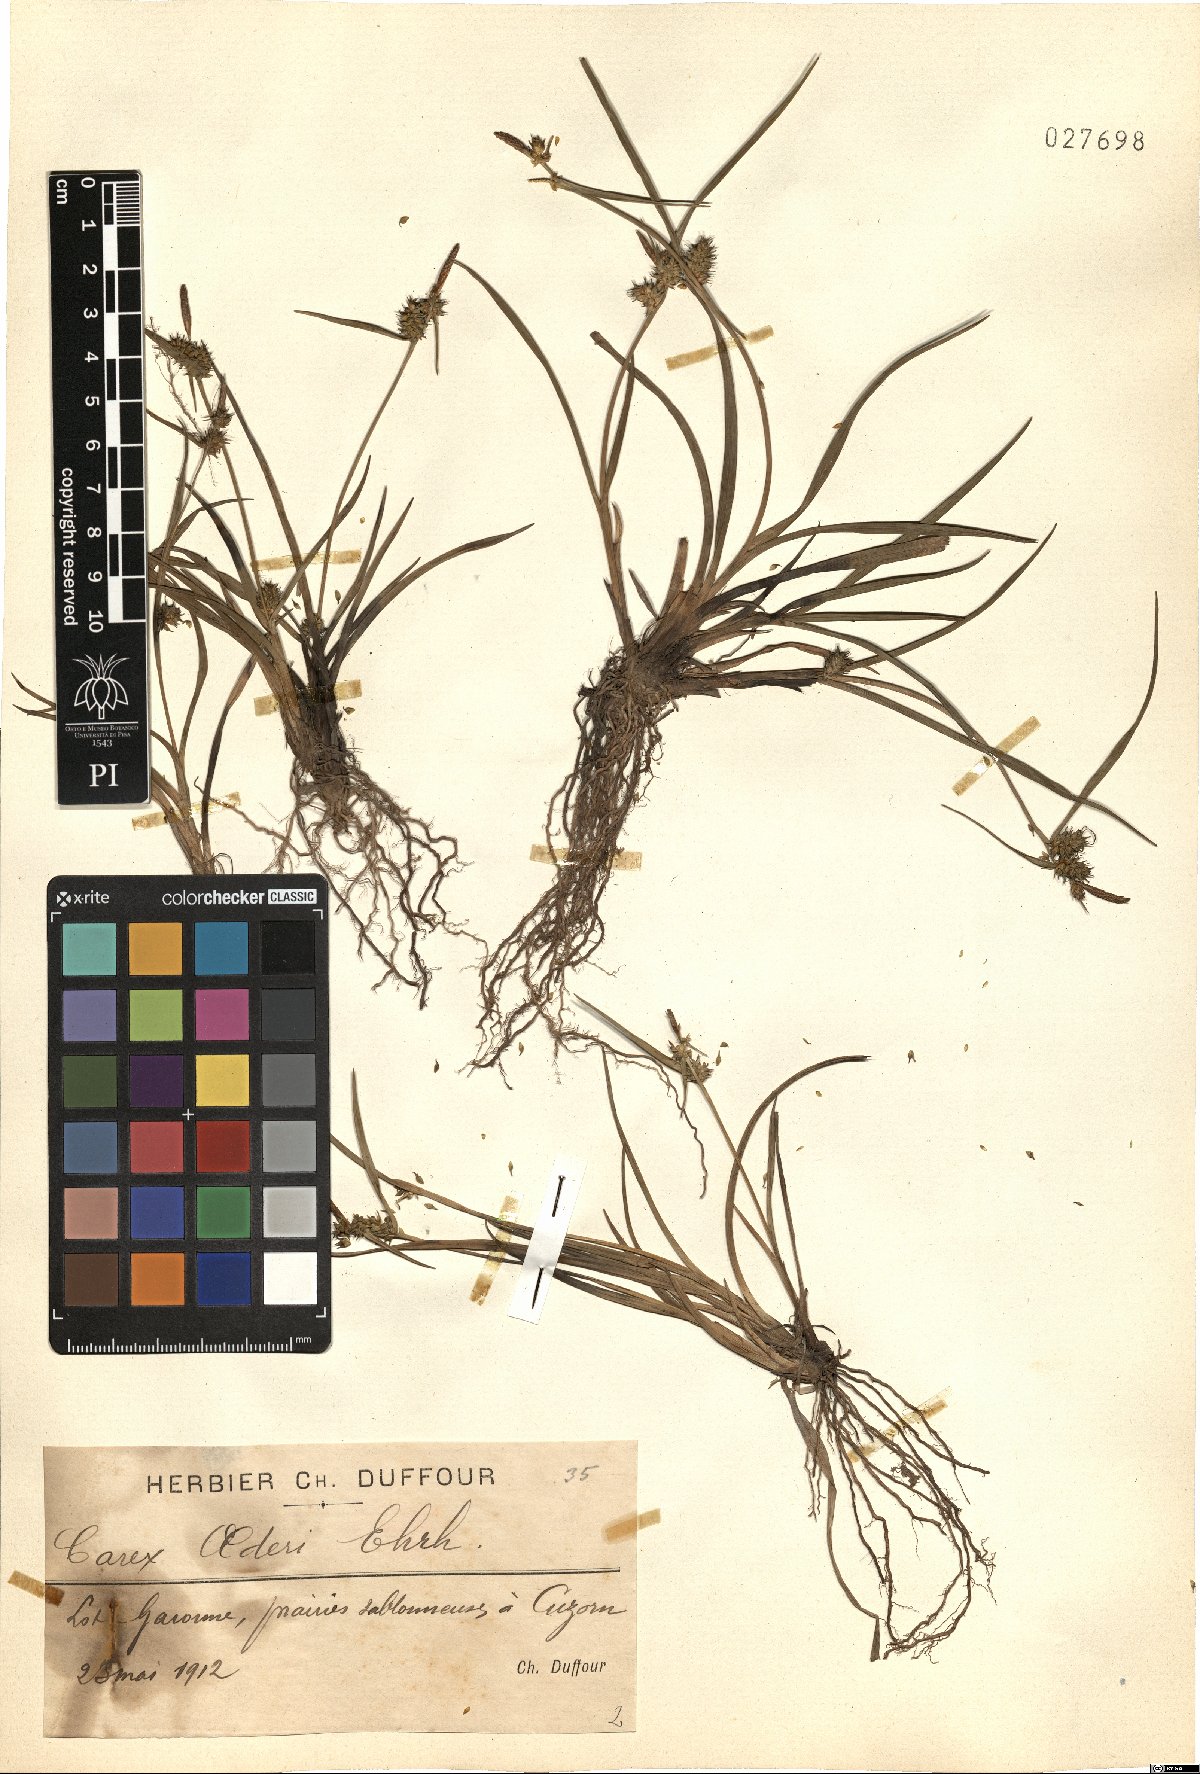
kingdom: Plantae
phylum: Tracheophyta
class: Liliopsida
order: Poales
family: Cyperaceae
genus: Carex
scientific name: Carex oederi
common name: Common & small-fruited yellow-sedge
